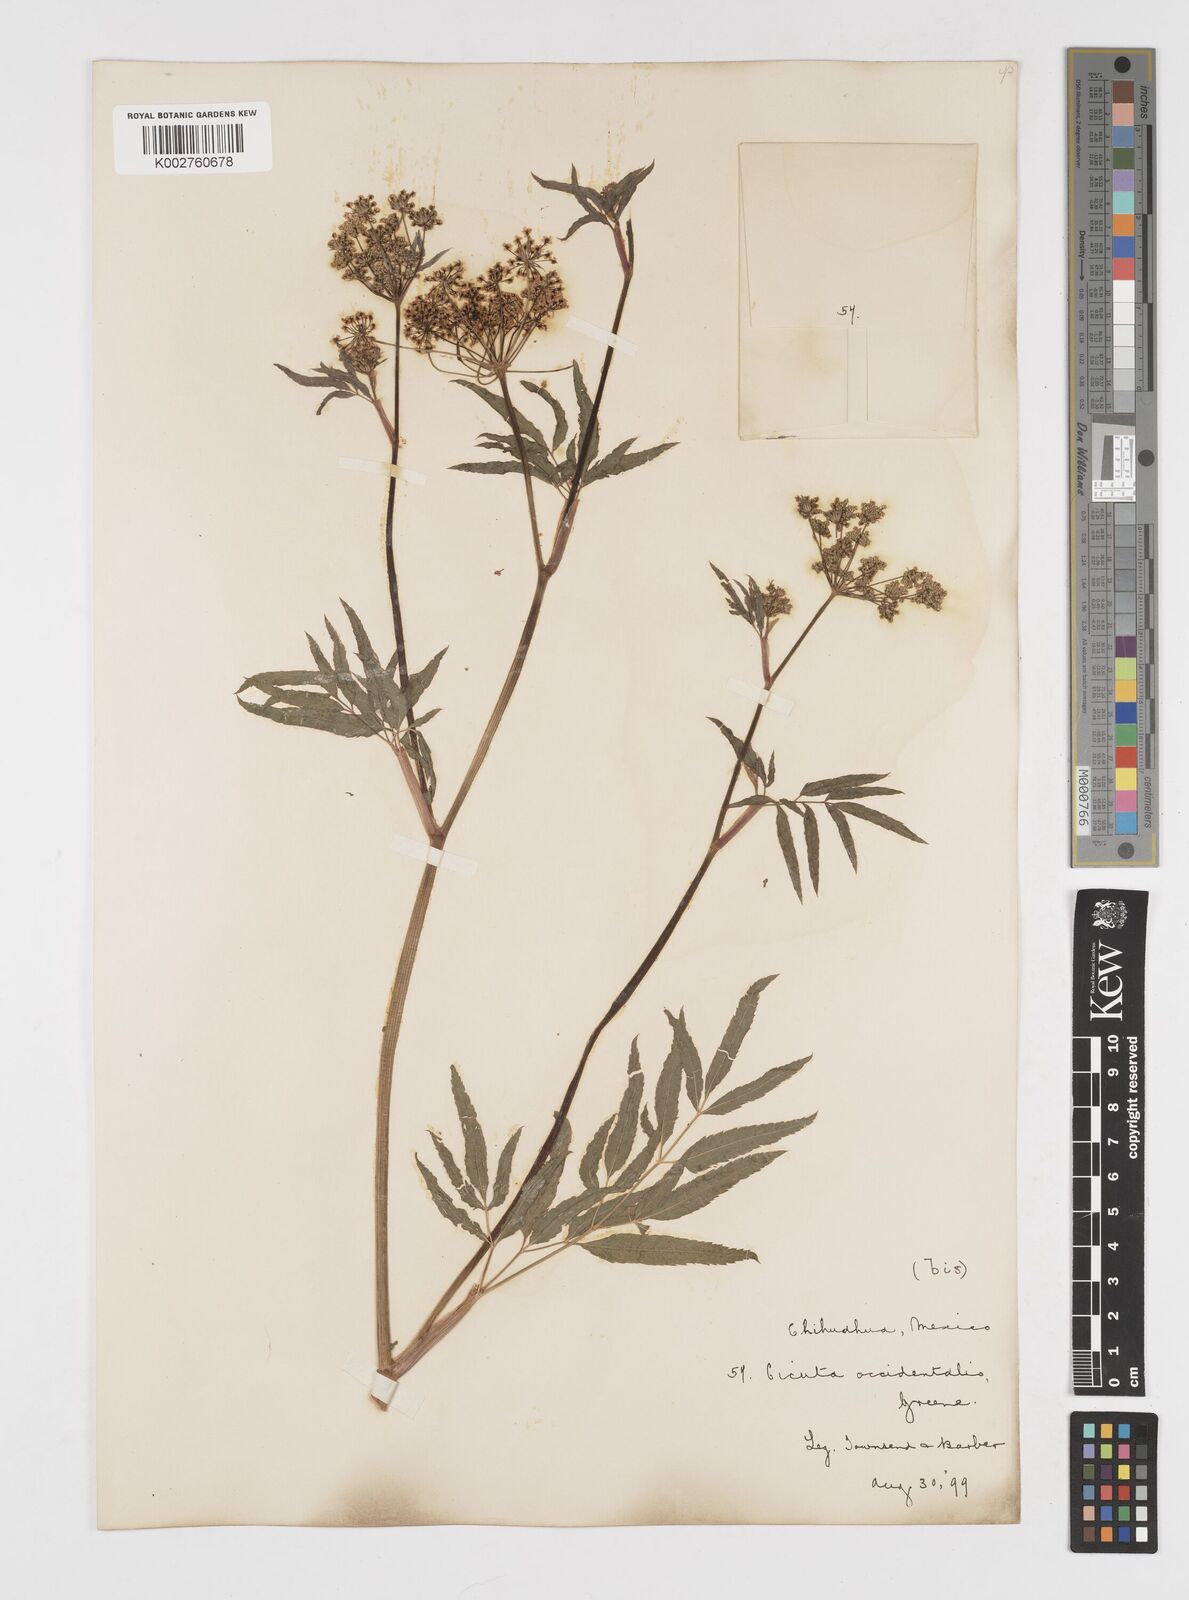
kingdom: Plantae
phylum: Tracheophyta
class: Magnoliopsida
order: Apiales
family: Apiaceae
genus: Cicuta
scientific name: Cicuta douglasii
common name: Western water-hemlock
